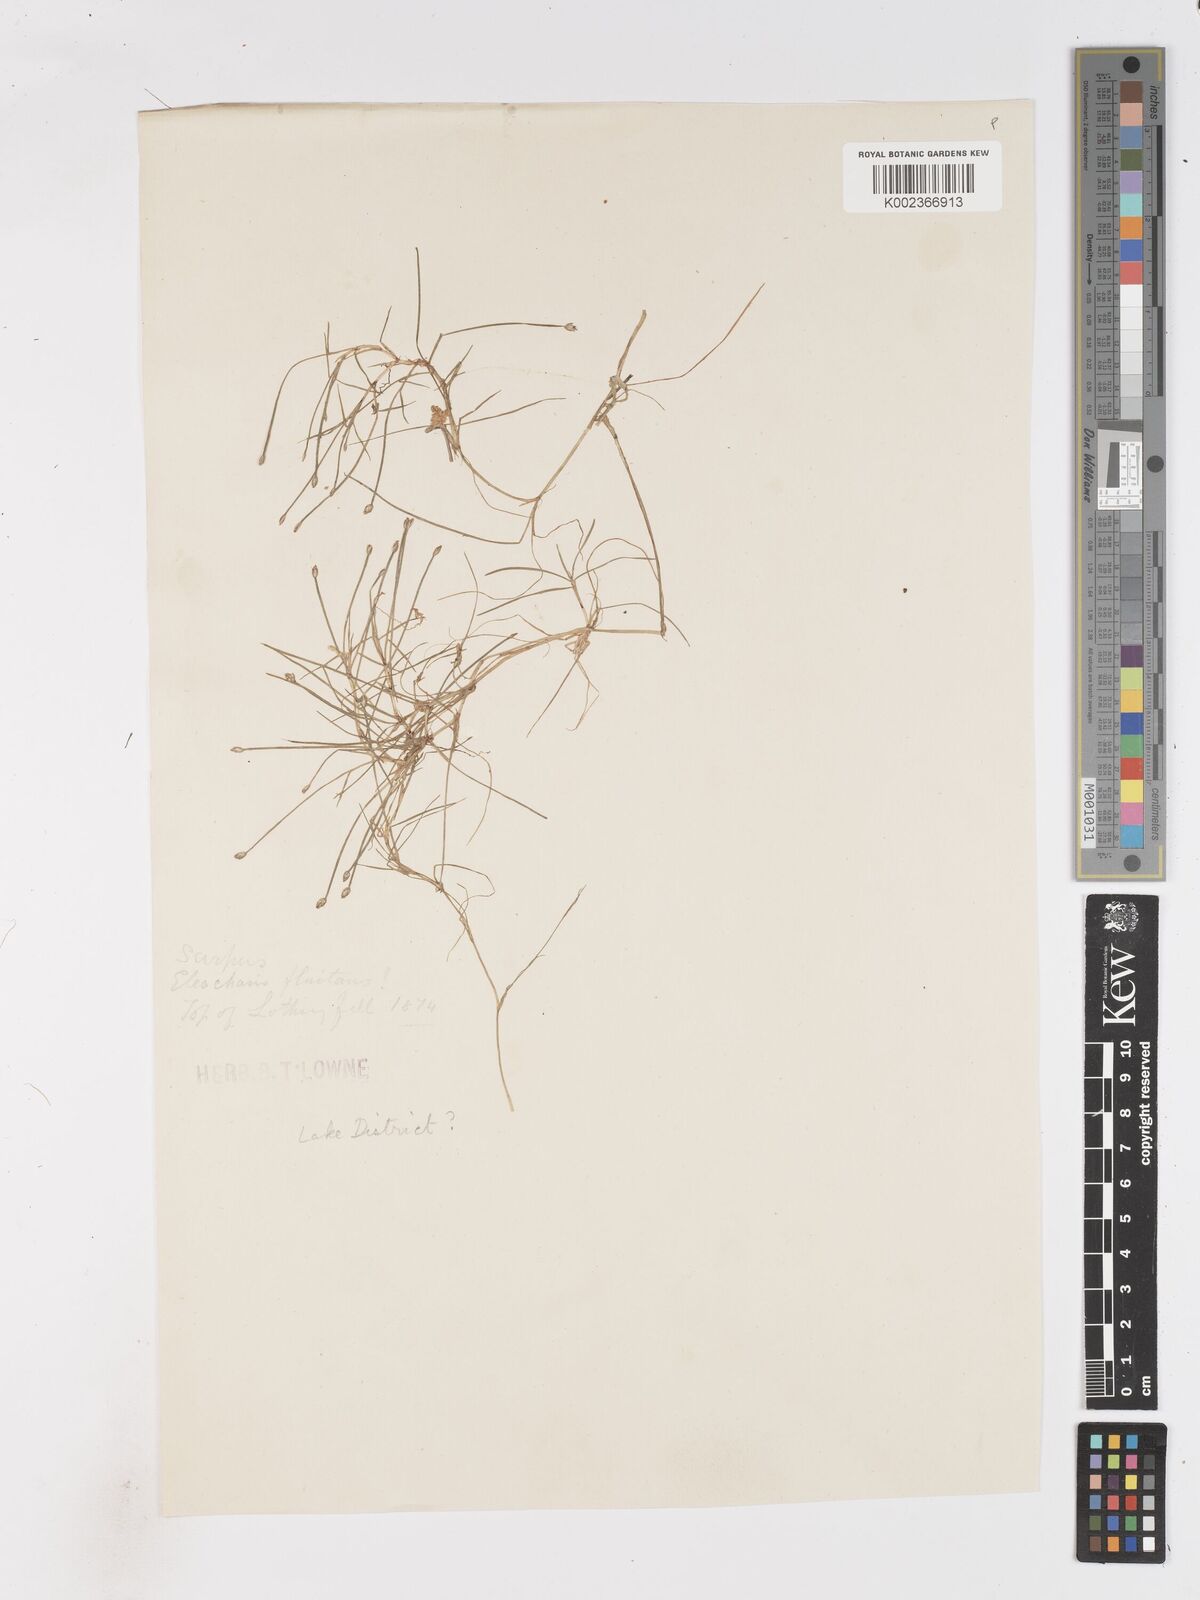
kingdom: Plantae
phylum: Tracheophyta
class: Liliopsida
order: Poales
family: Cyperaceae
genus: Isolepis
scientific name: Isolepis fluitans
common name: Floating club-rush
